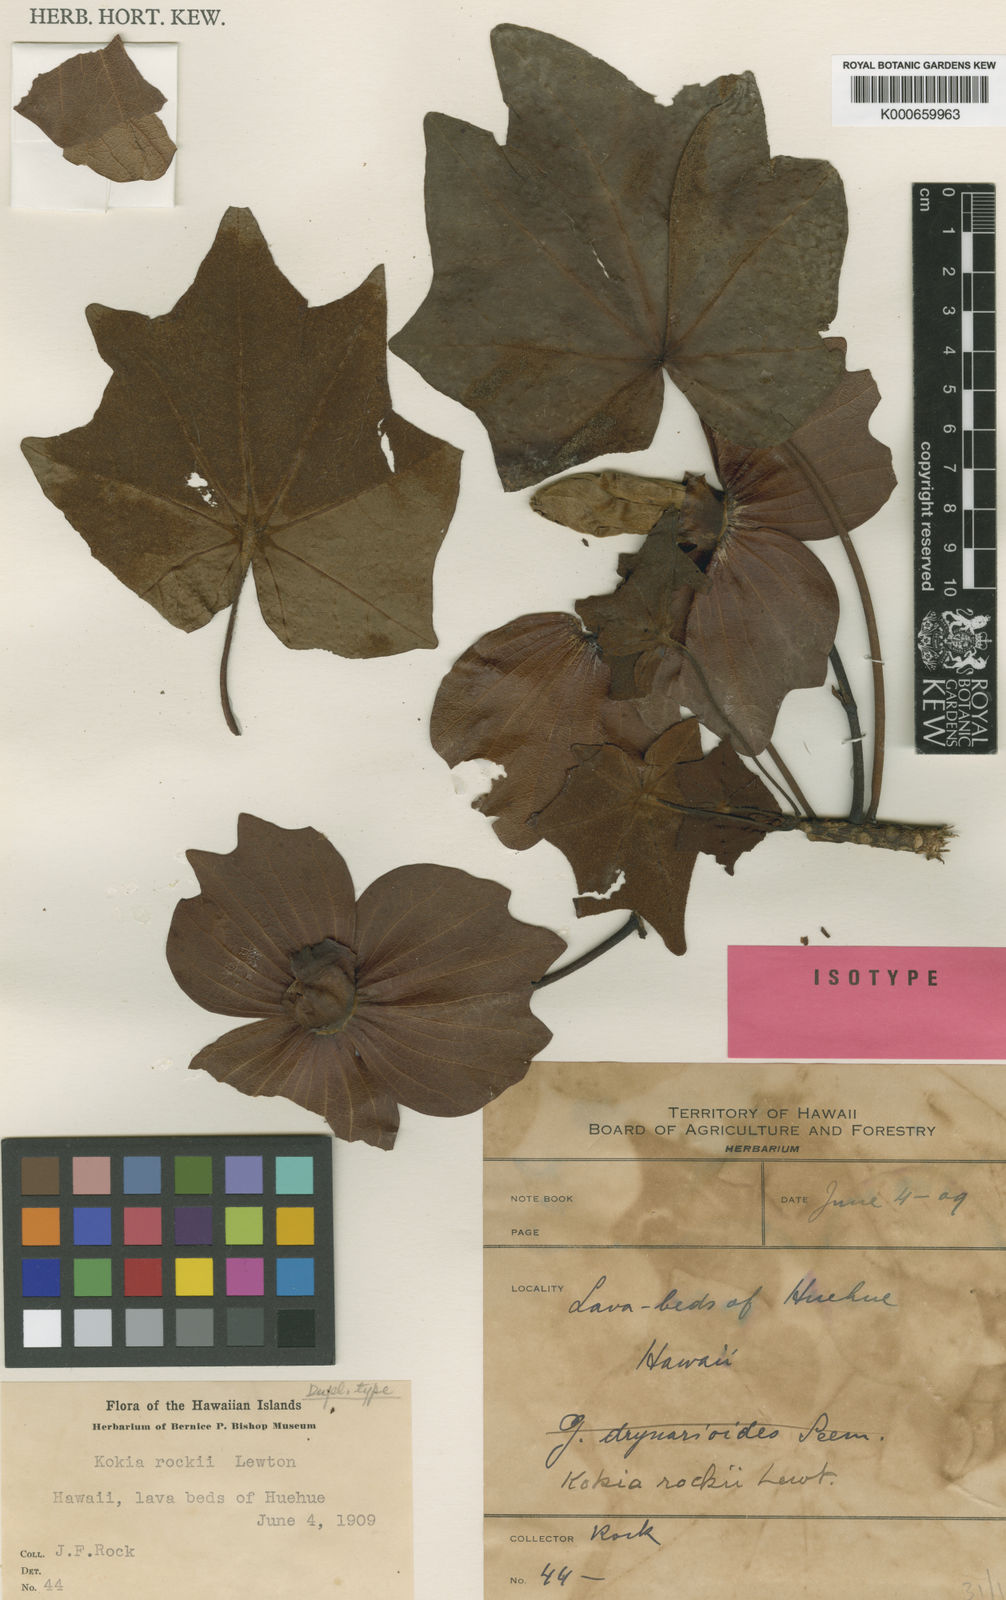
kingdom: Plantae
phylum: Tracheophyta
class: Magnoliopsida
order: Malvales
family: Malvaceae
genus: Kokia
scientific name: Kokia drynarioides
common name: Hawaiian tree cotton
